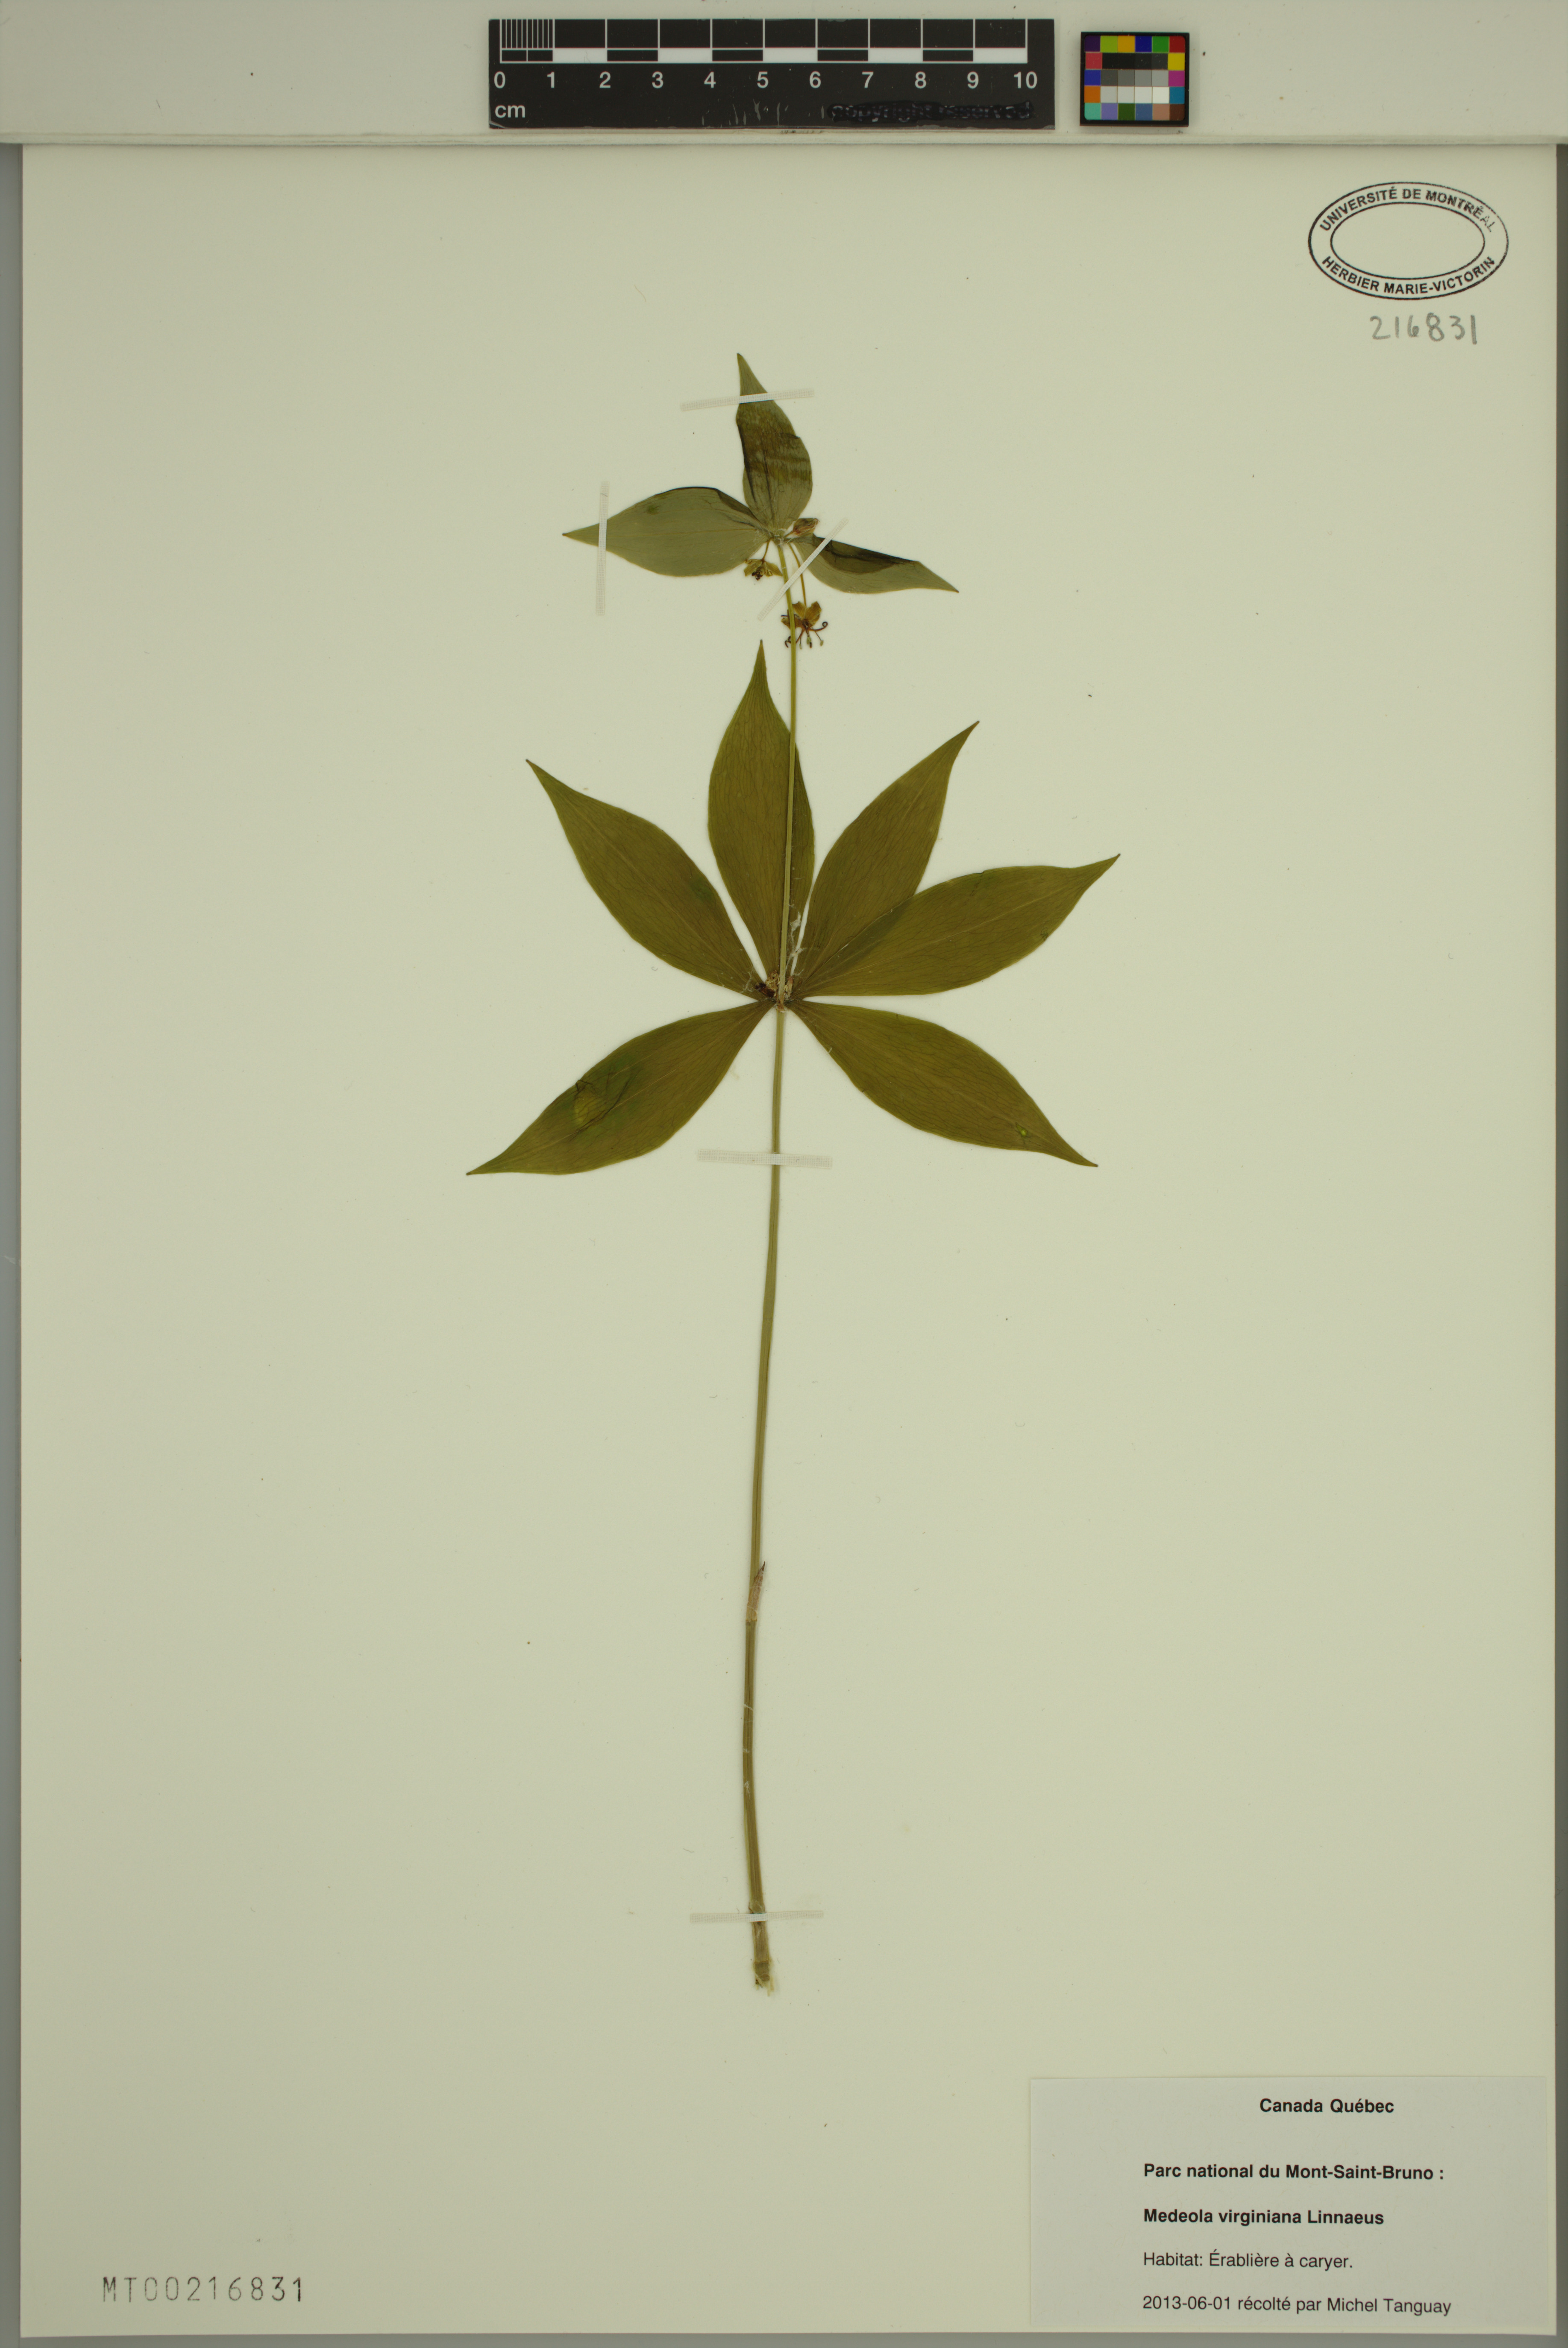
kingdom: Plantae
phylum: Tracheophyta
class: Liliopsida
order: Liliales
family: Liliaceae
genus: Medeola
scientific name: Medeola virginiana
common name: Indian cucumber-root
